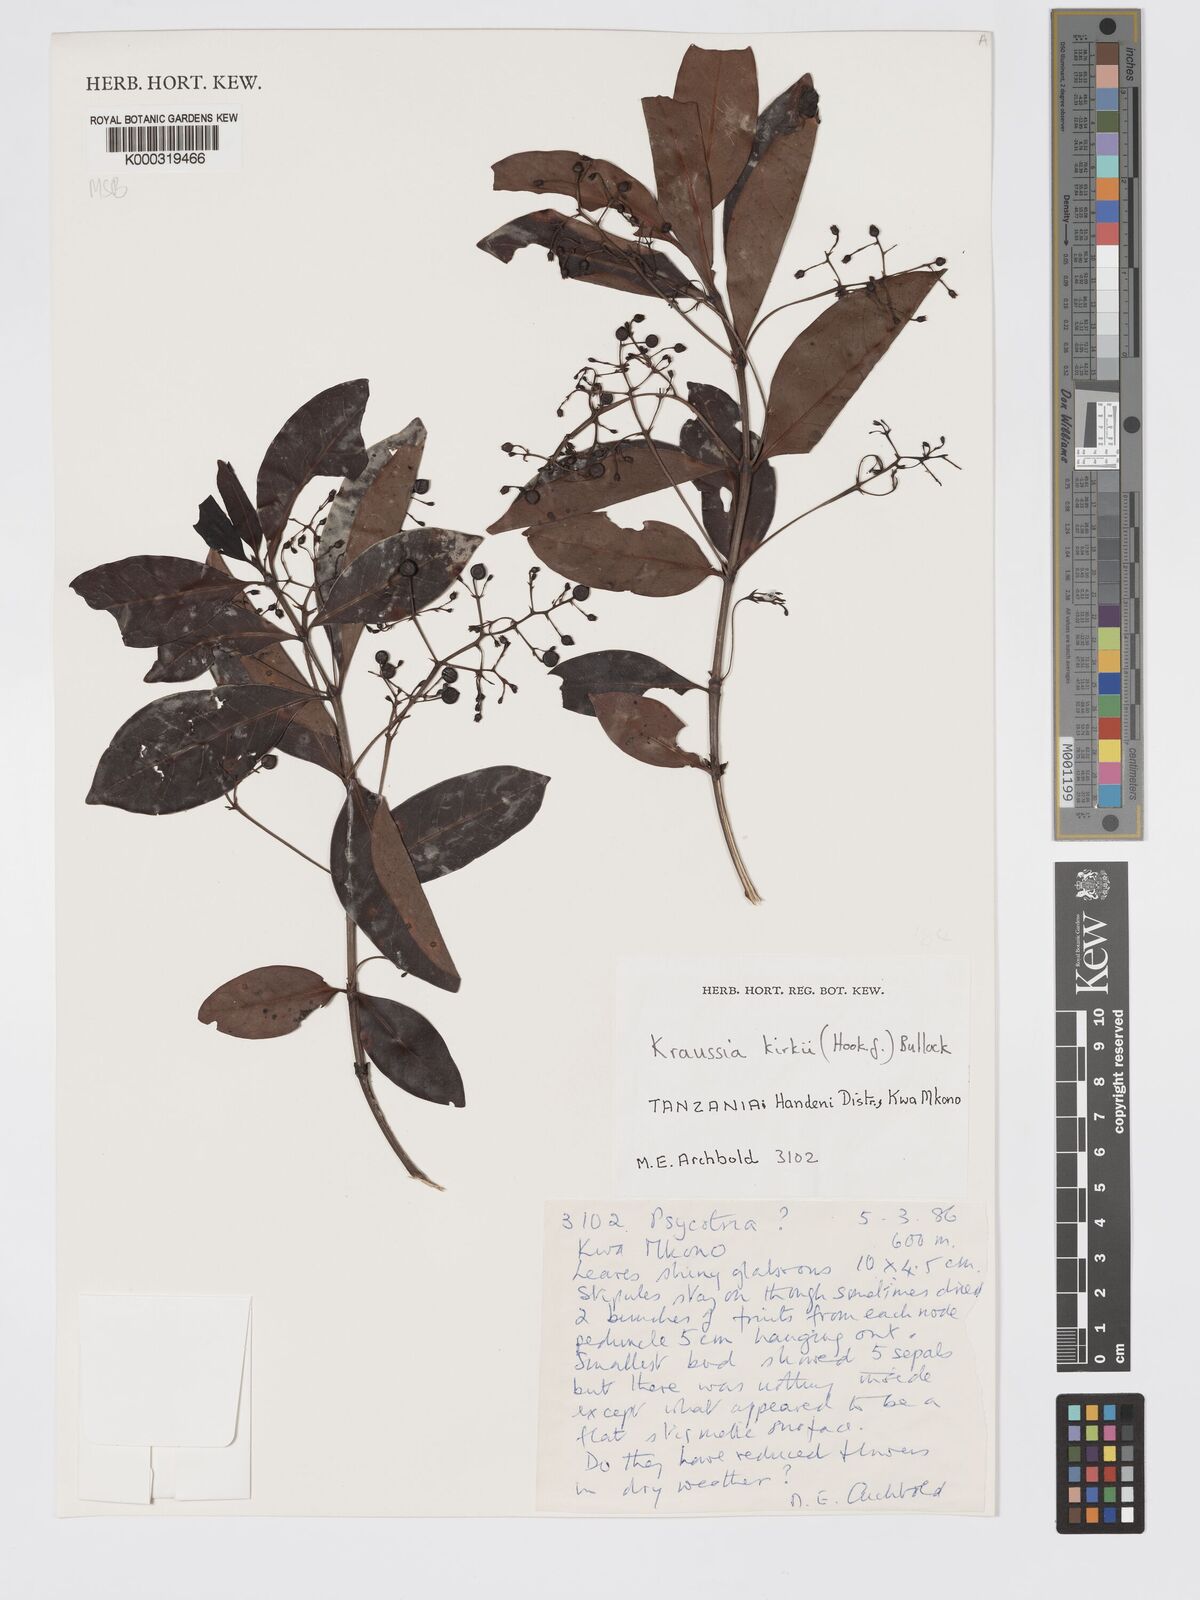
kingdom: Plantae
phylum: Tracheophyta
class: Magnoliopsida
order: Gentianales
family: Rubiaceae
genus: Kraussia
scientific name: Kraussia kirkii
